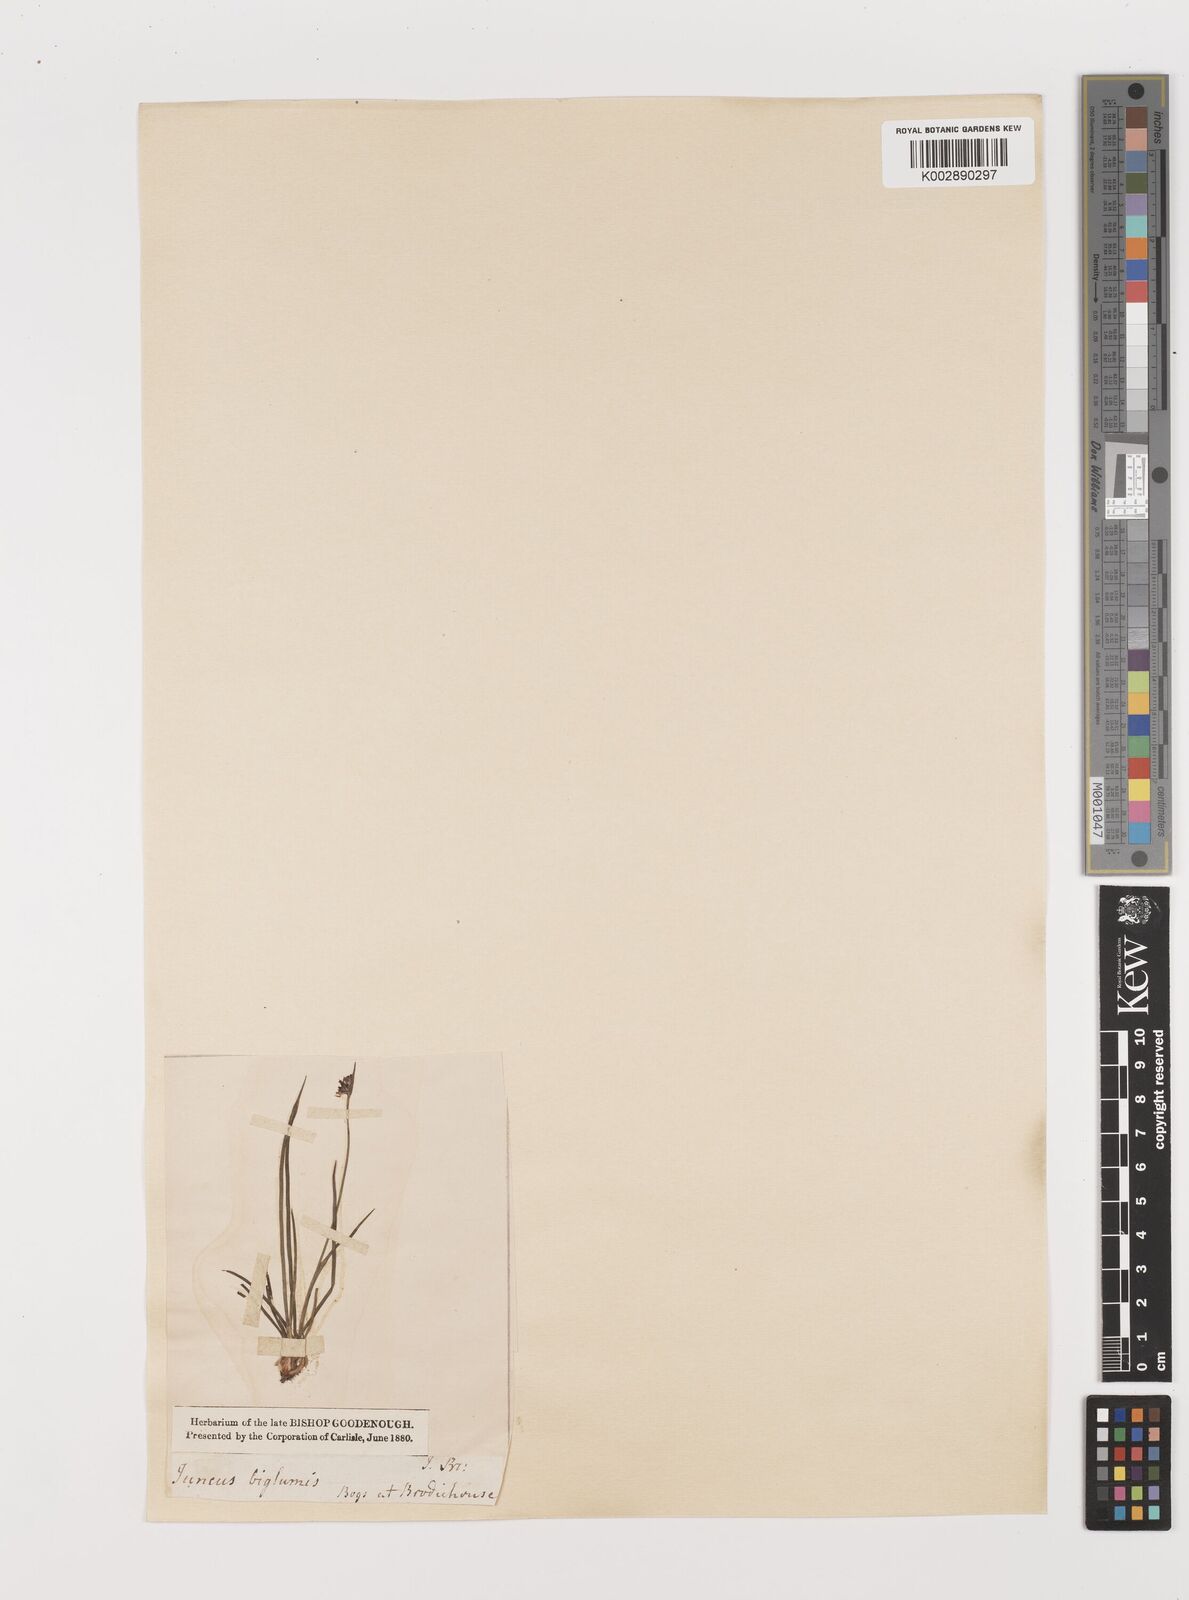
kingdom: Plantae
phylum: Tracheophyta
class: Liliopsida
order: Poales
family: Juncaceae
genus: Juncus
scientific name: Juncus biglumis
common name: Two-flowered rush
